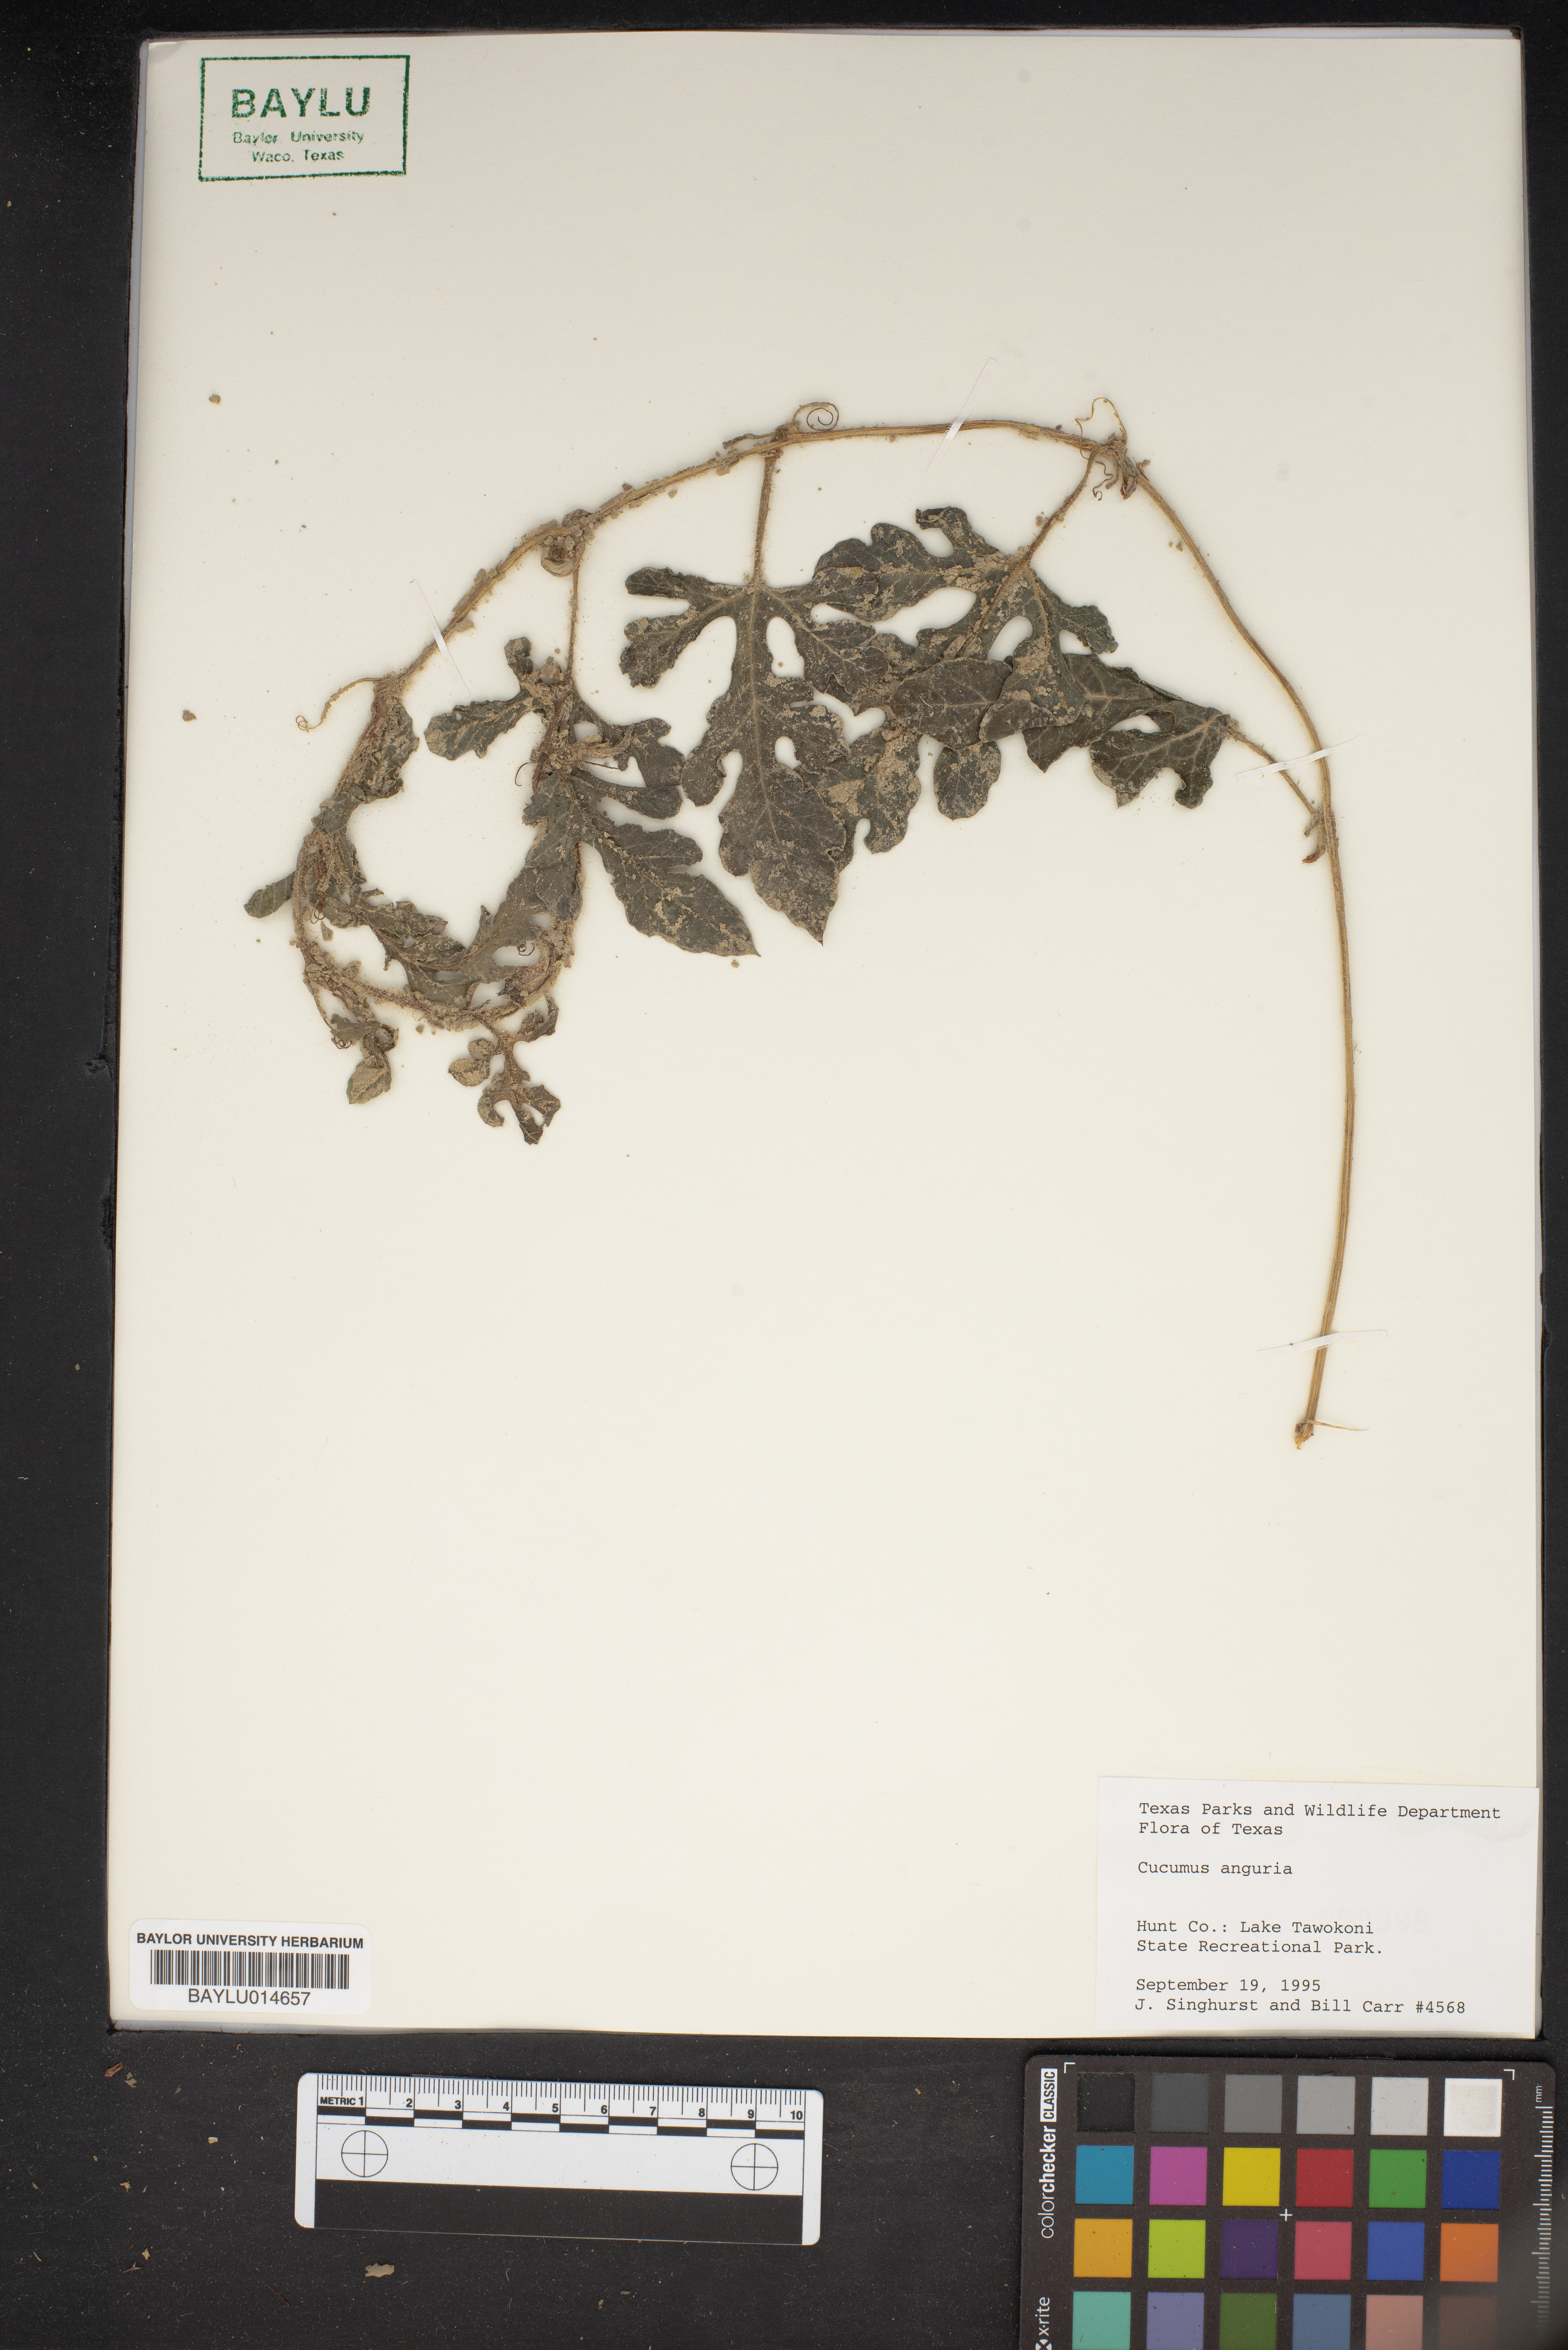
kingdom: Plantae
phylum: Tracheophyta
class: Magnoliopsida
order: Cucurbitales
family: Cucurbitaceae
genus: Cucumis
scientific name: Cucumis anguria
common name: West indian gherkin
